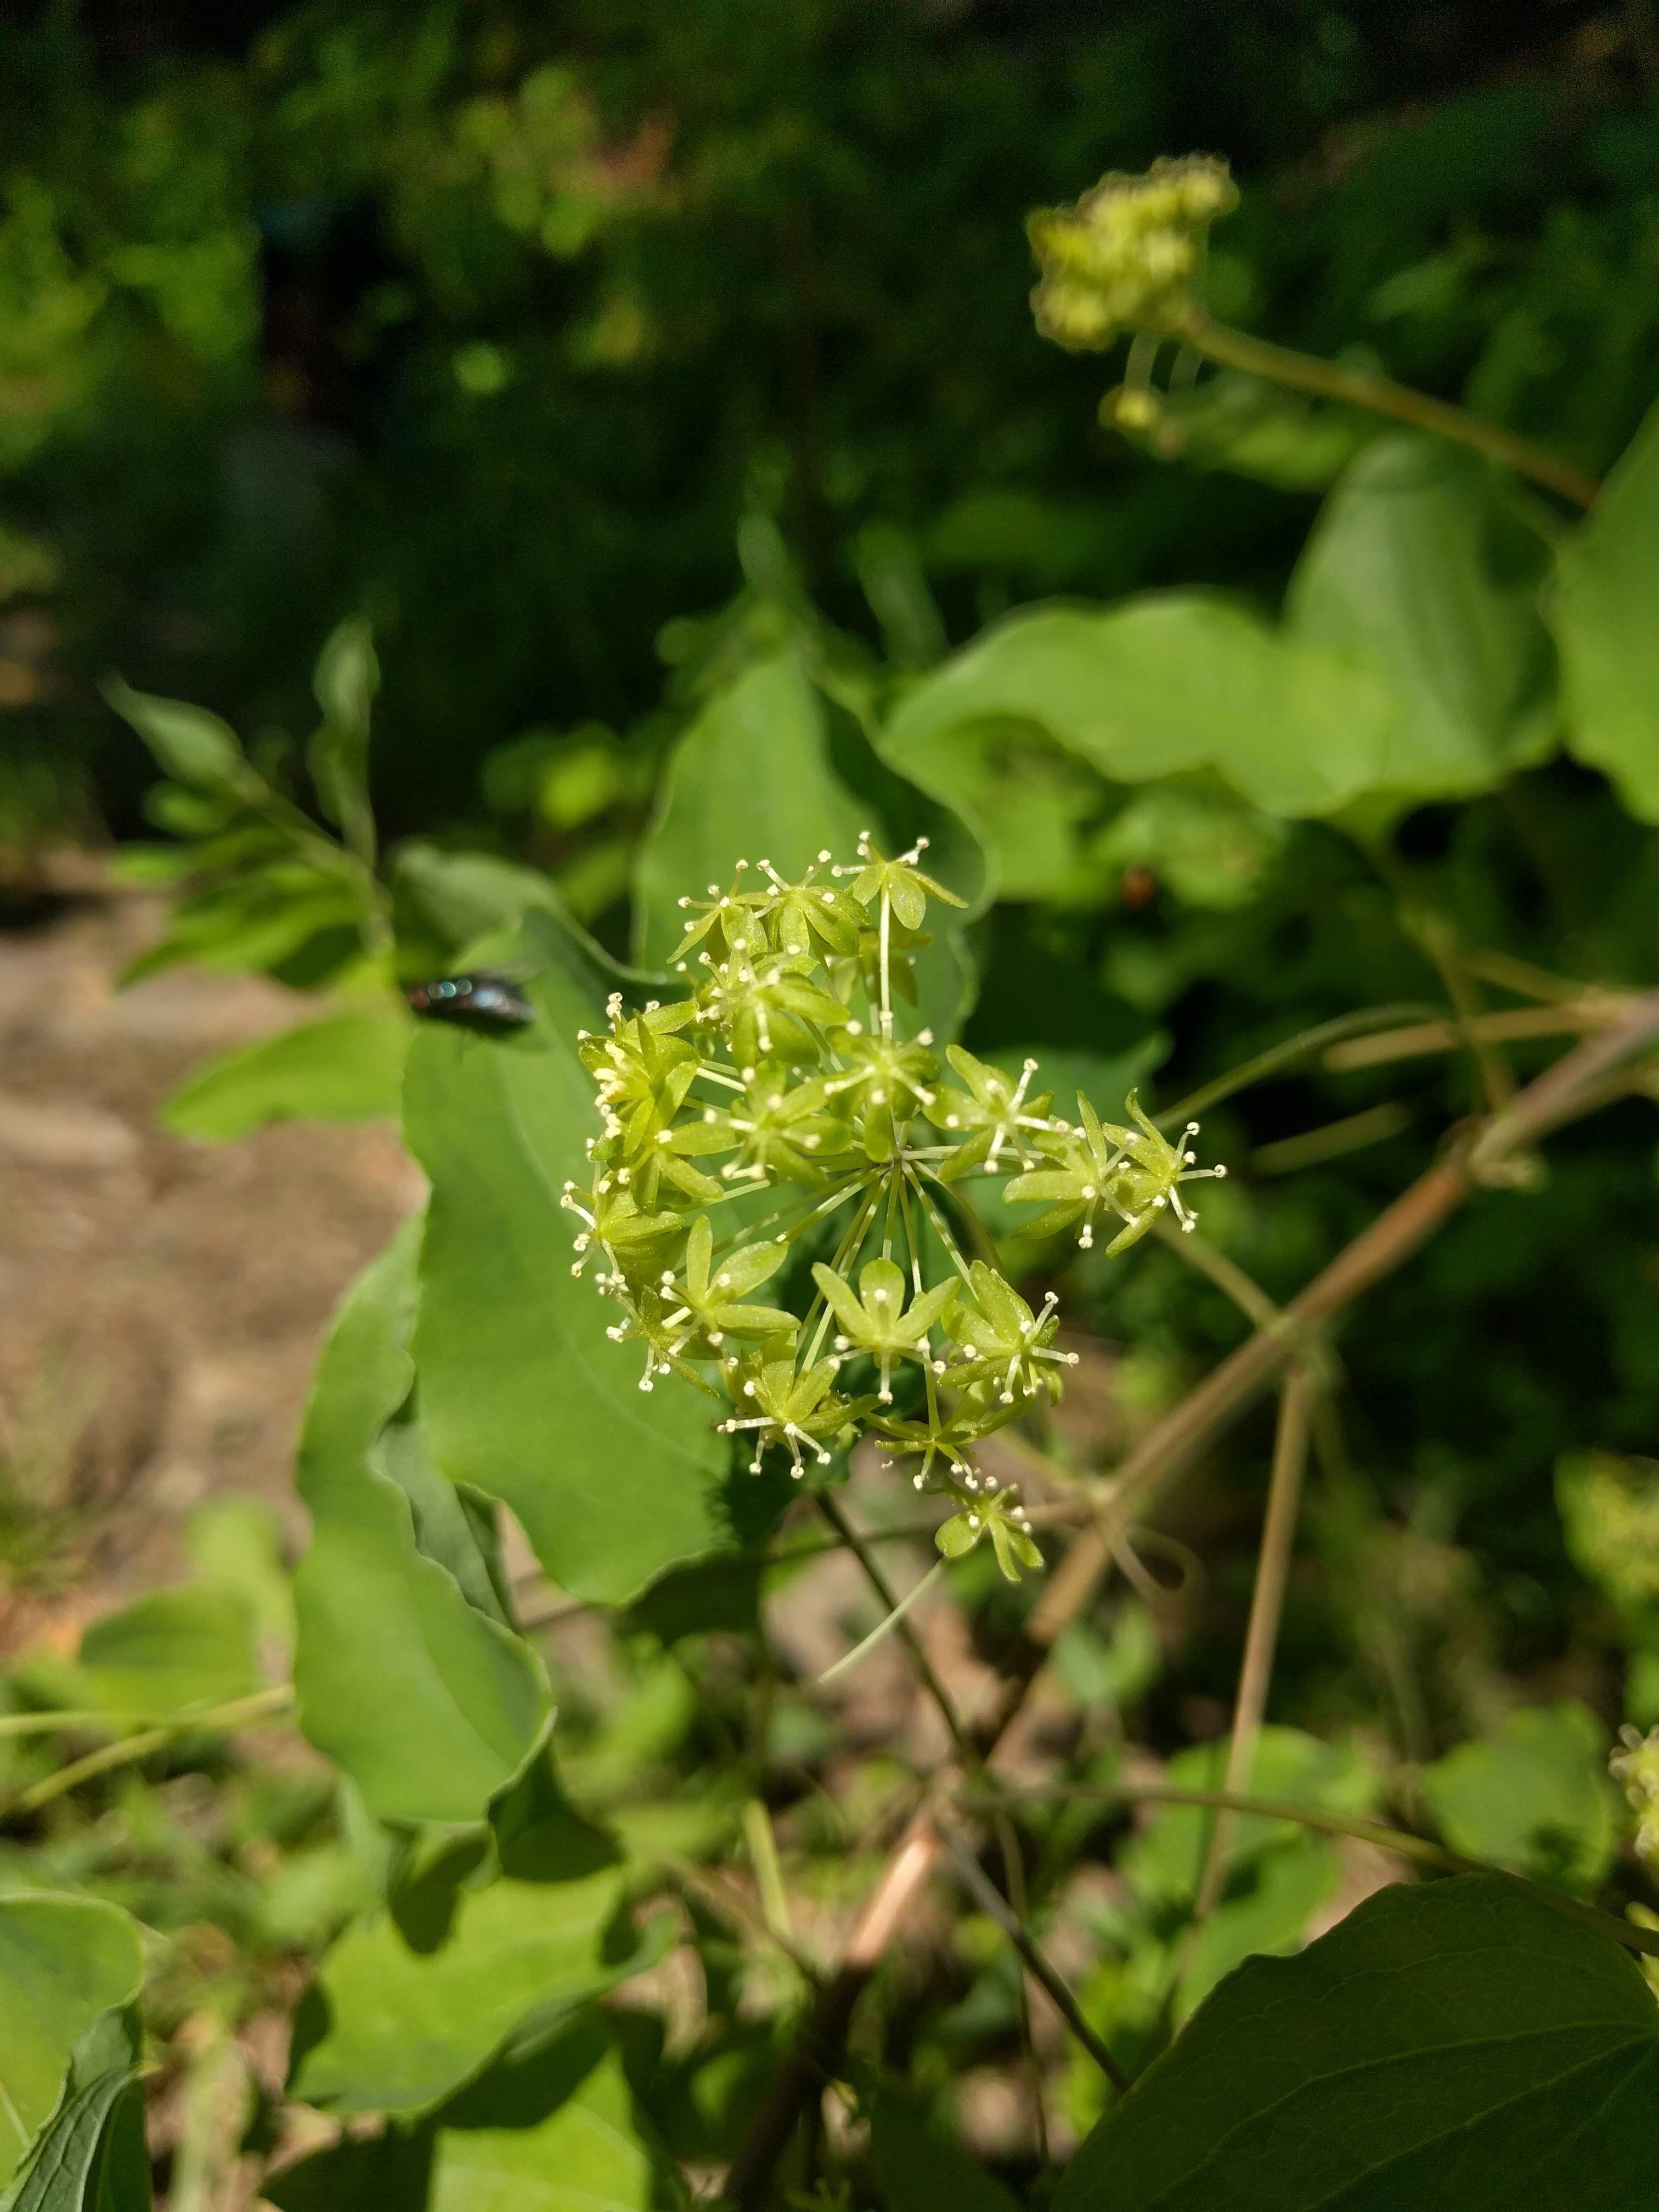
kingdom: Plantae
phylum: Tracheophyta
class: Liliopsida
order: Liliales
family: Smilacaceae
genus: Smilax
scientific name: Smilax herbacea
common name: Jacob's-ladder
